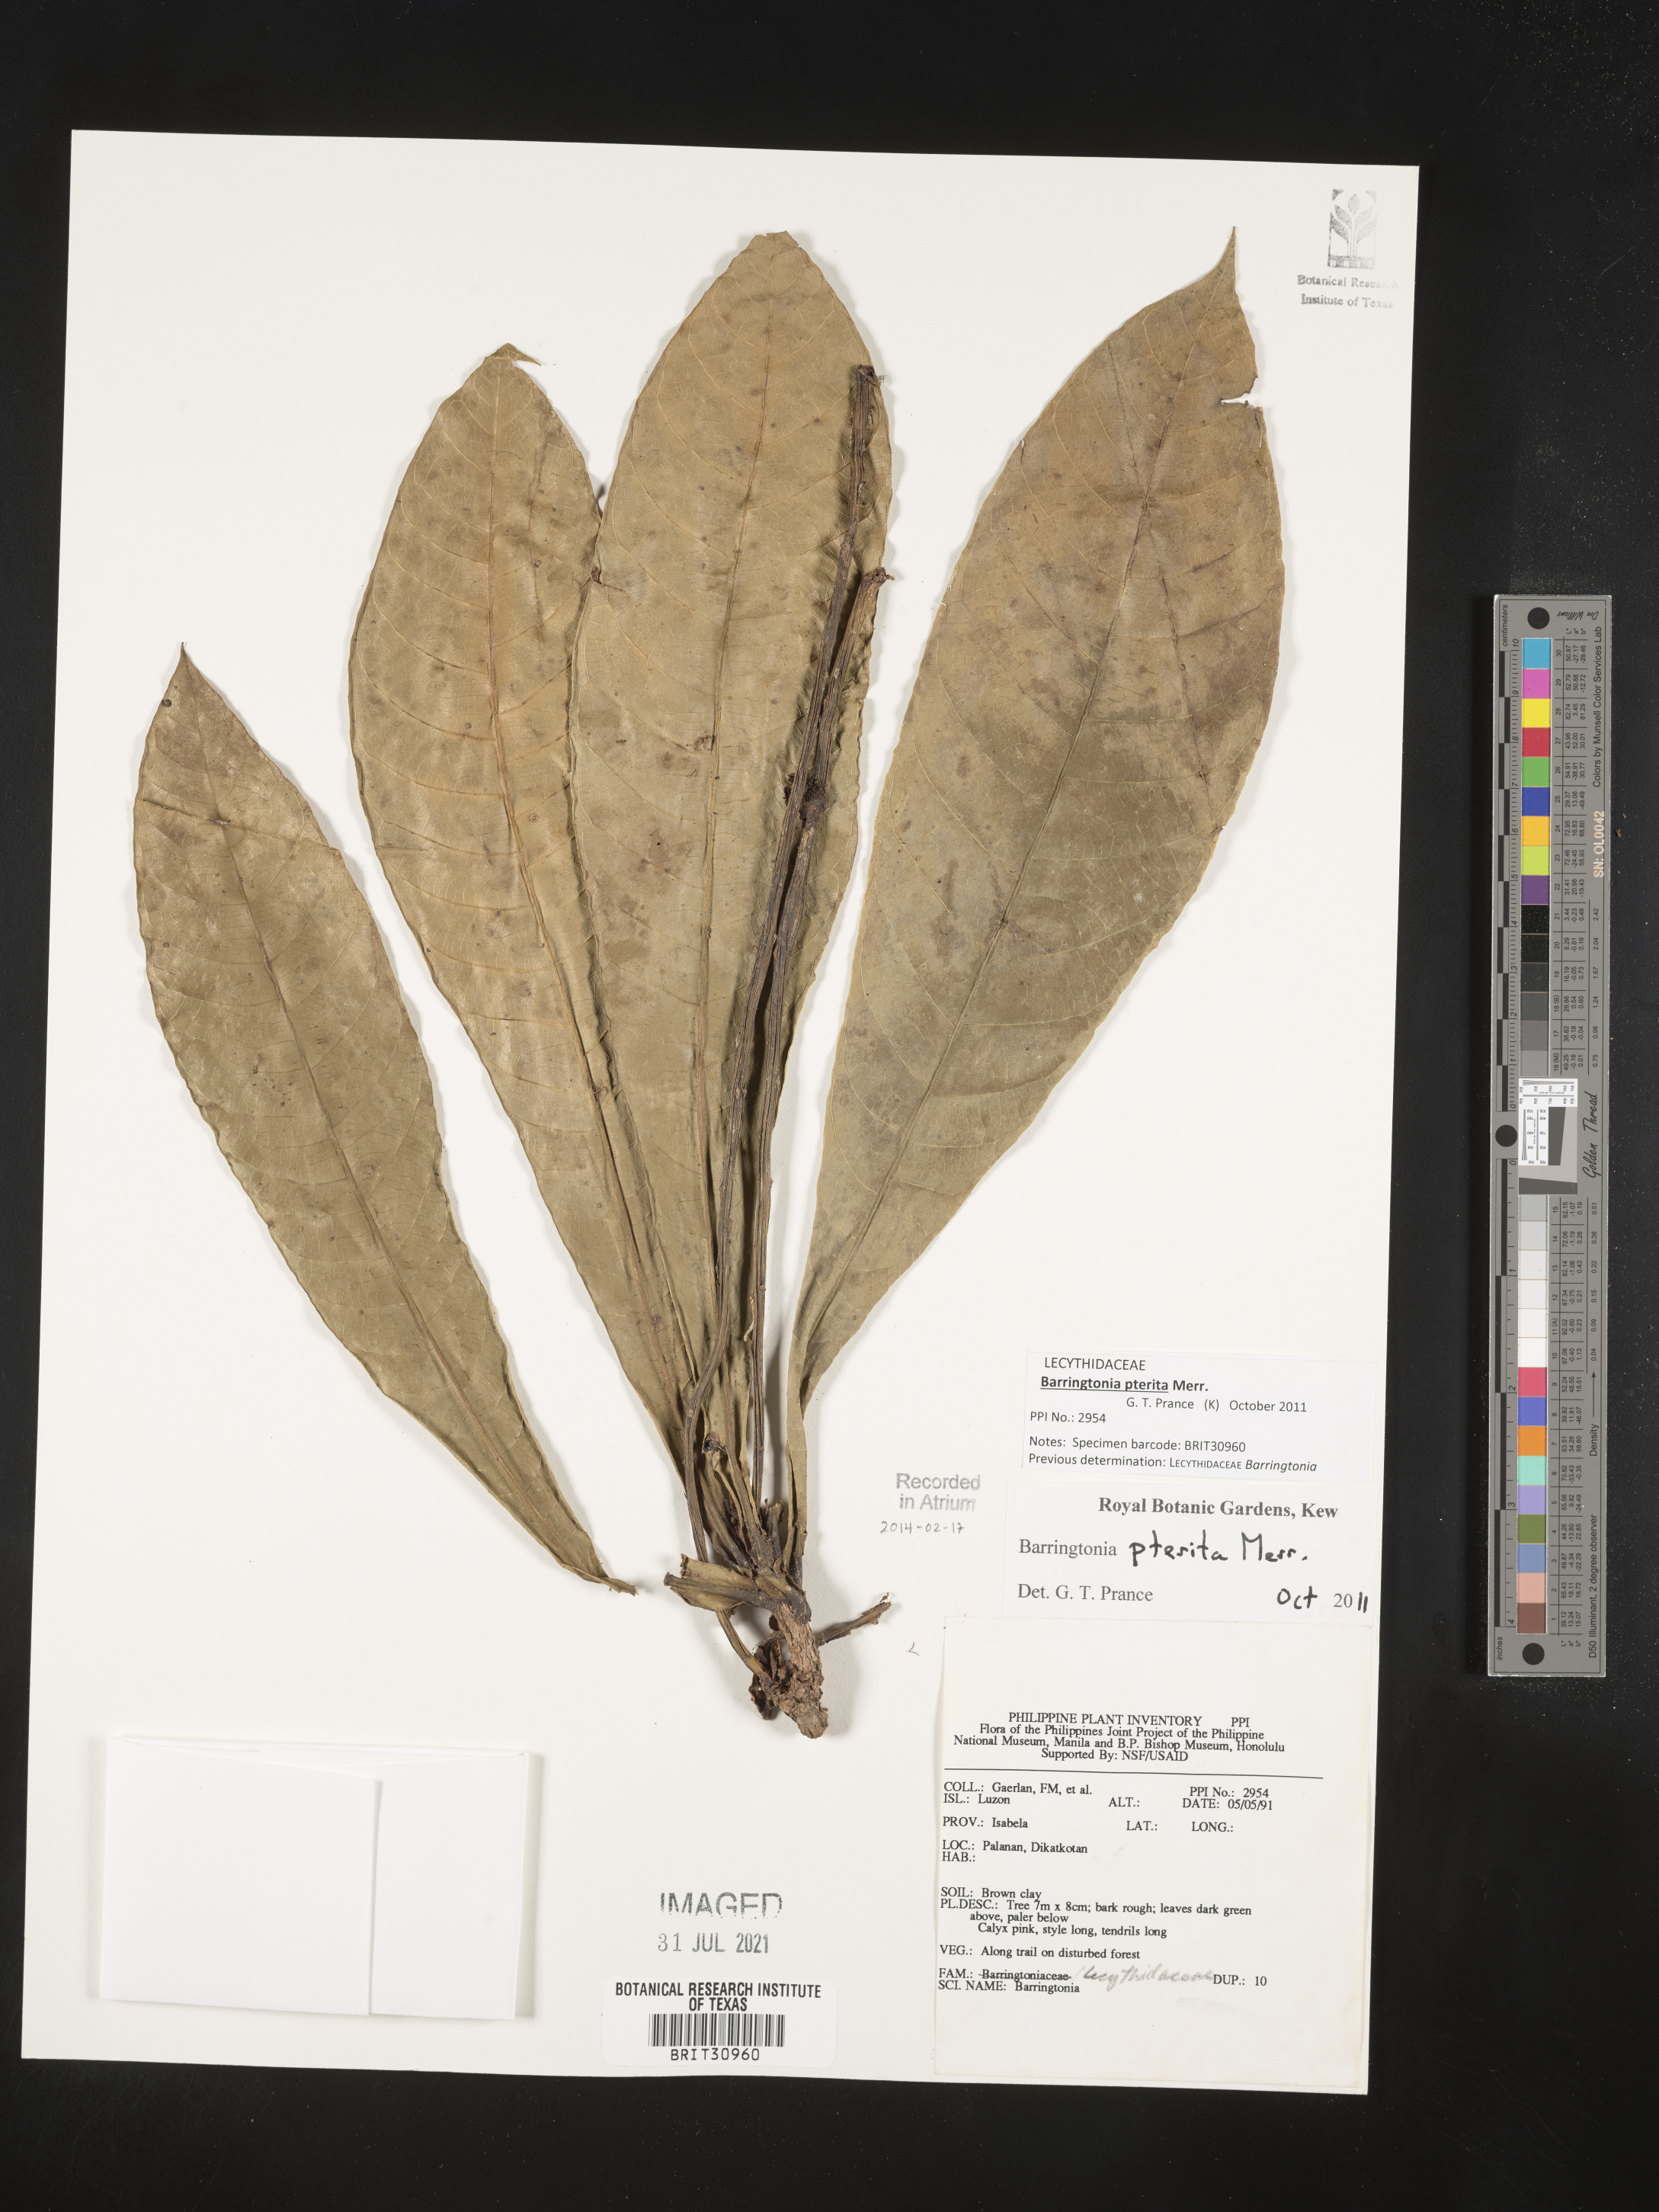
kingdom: Plantae
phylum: Tracheophyta
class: Magnoliopsida
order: Ericales
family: Lecythidaceae
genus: Barringtonia
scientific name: Barringtonia
